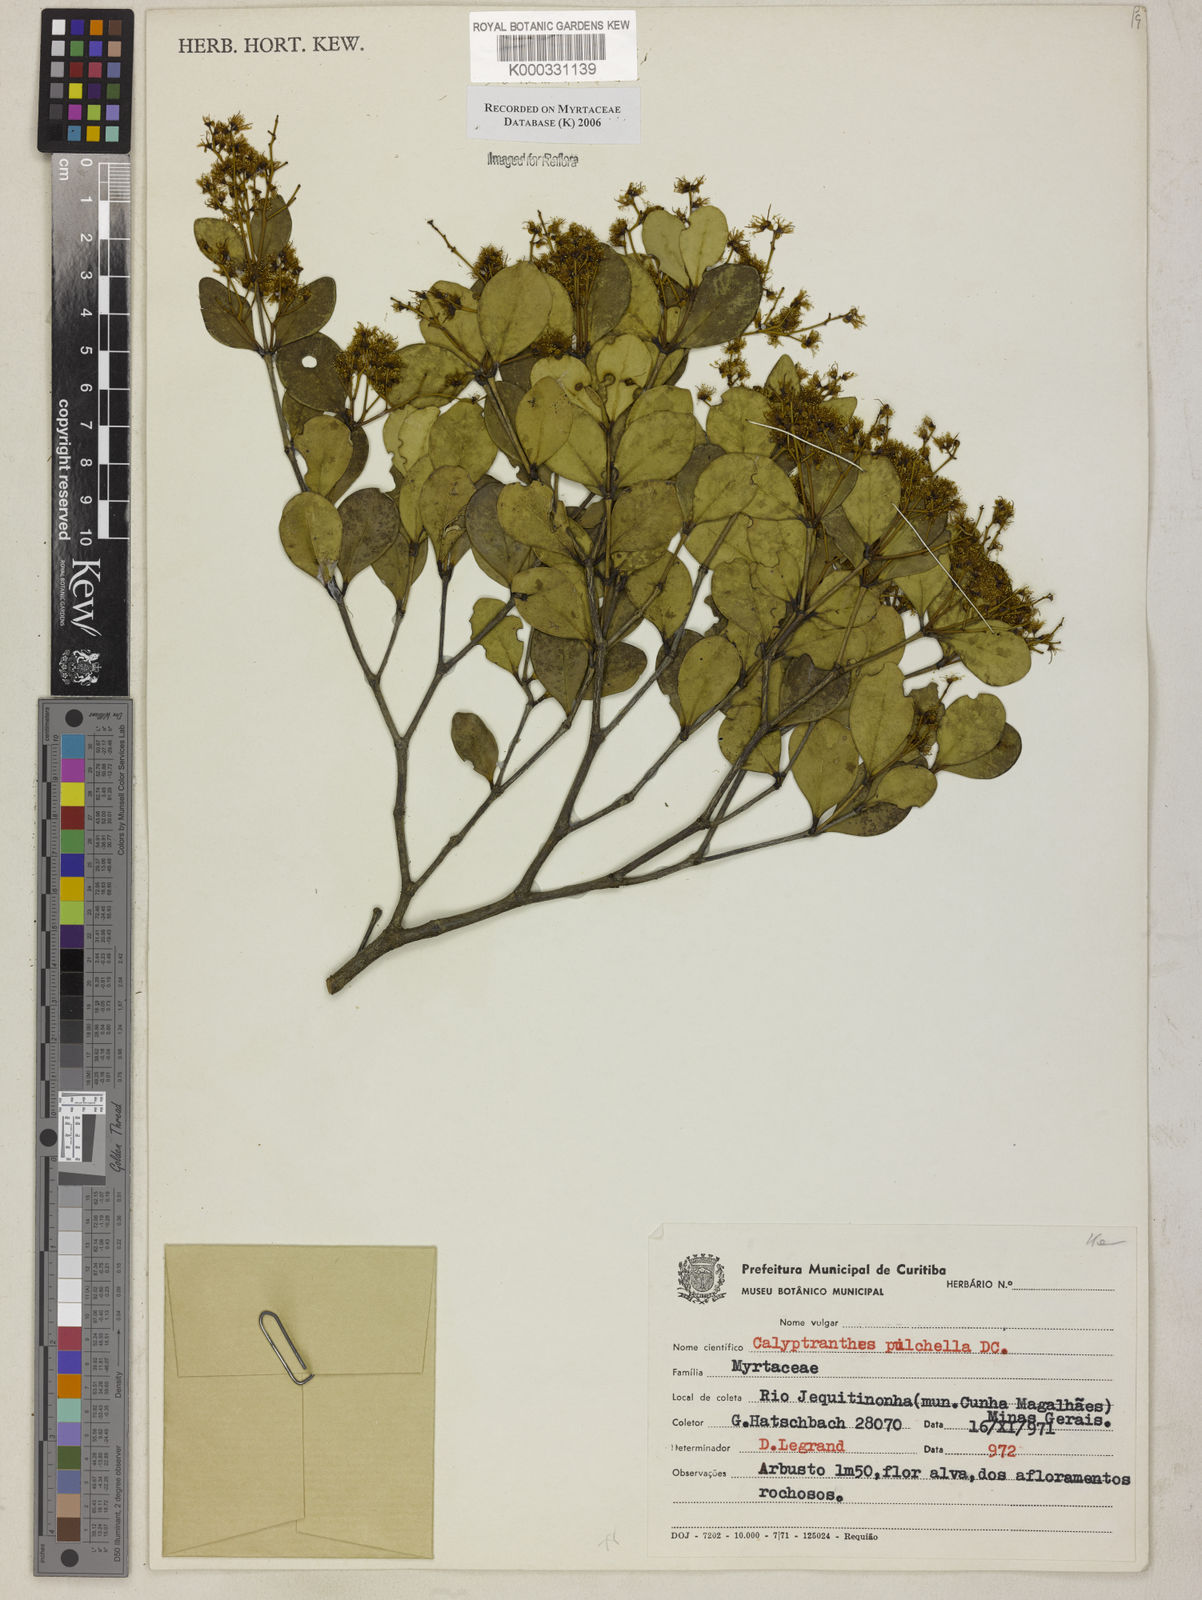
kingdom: Plantae
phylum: Tracheophyta
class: Magnoliopsida
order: Myrtales
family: Myrtaceae
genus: Myrcia
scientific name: Myrcia pulchella
